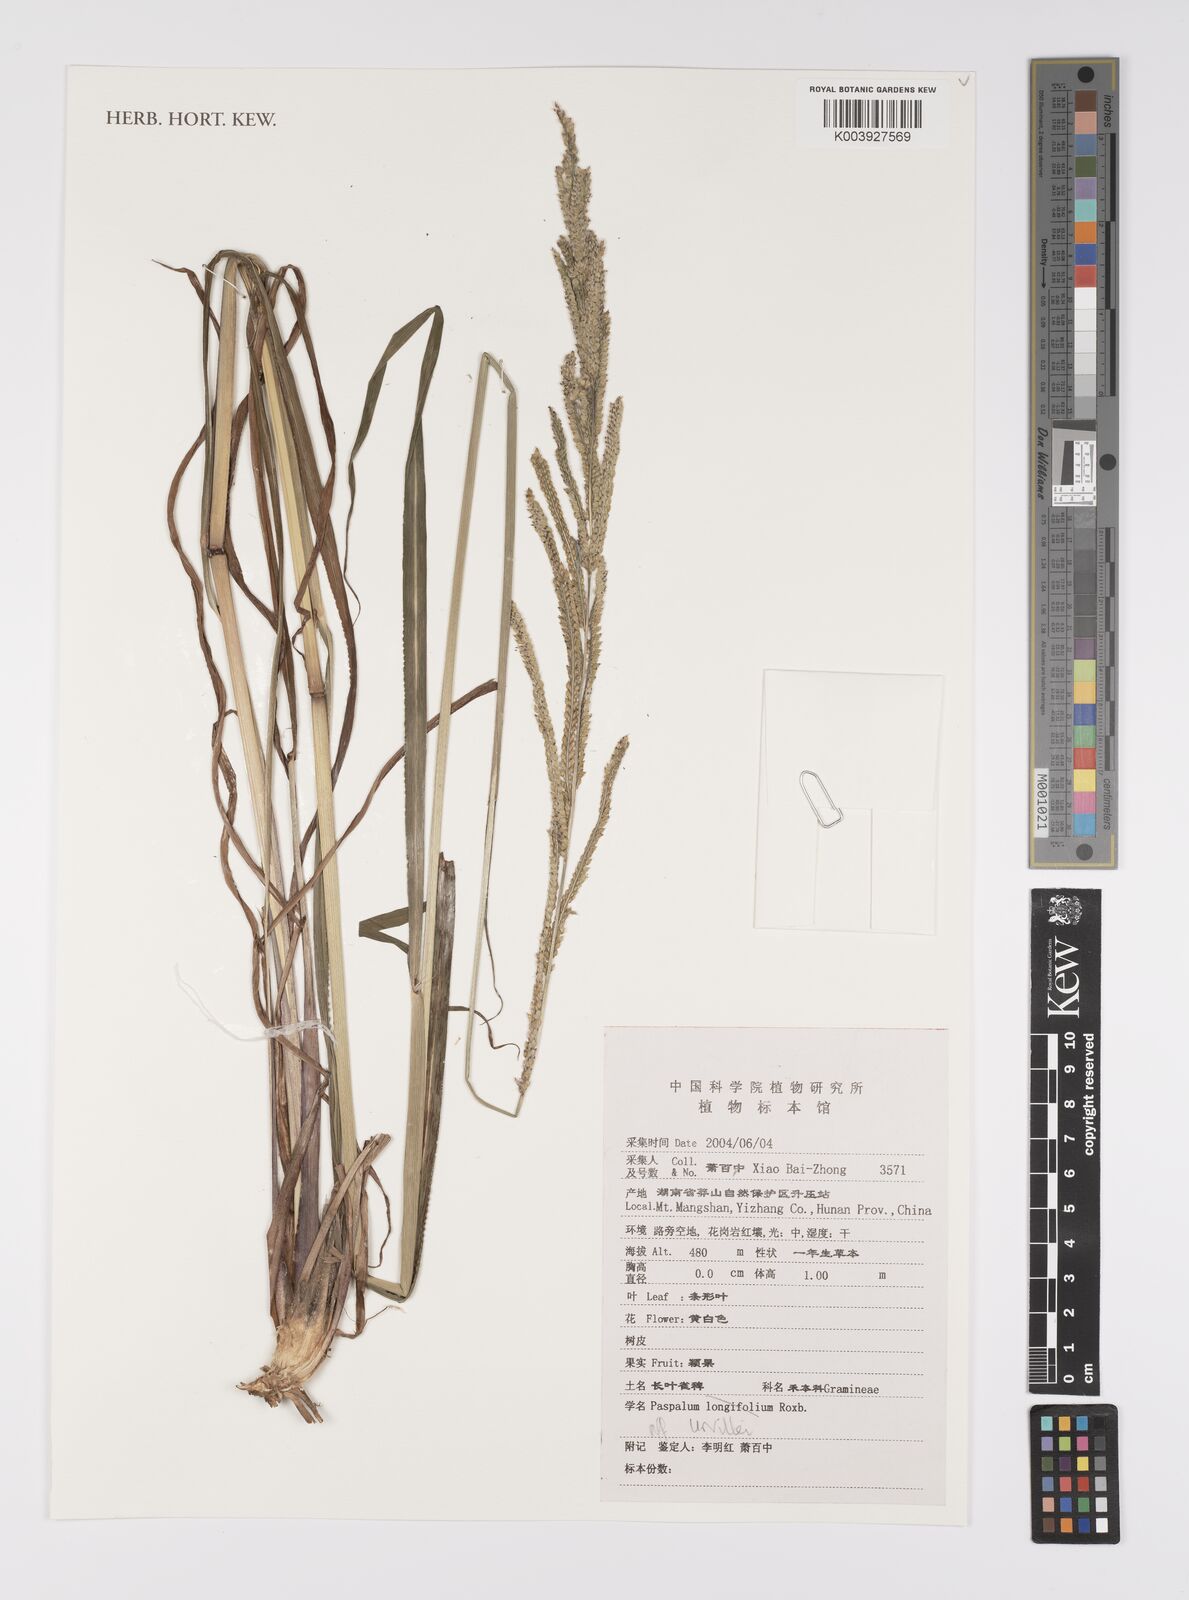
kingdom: Plantae
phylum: Tracheophyta
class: Liliopsida
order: Poales
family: Poaceae
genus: Paspalum
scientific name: Paspalum urvillei
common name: Vasey's grass
